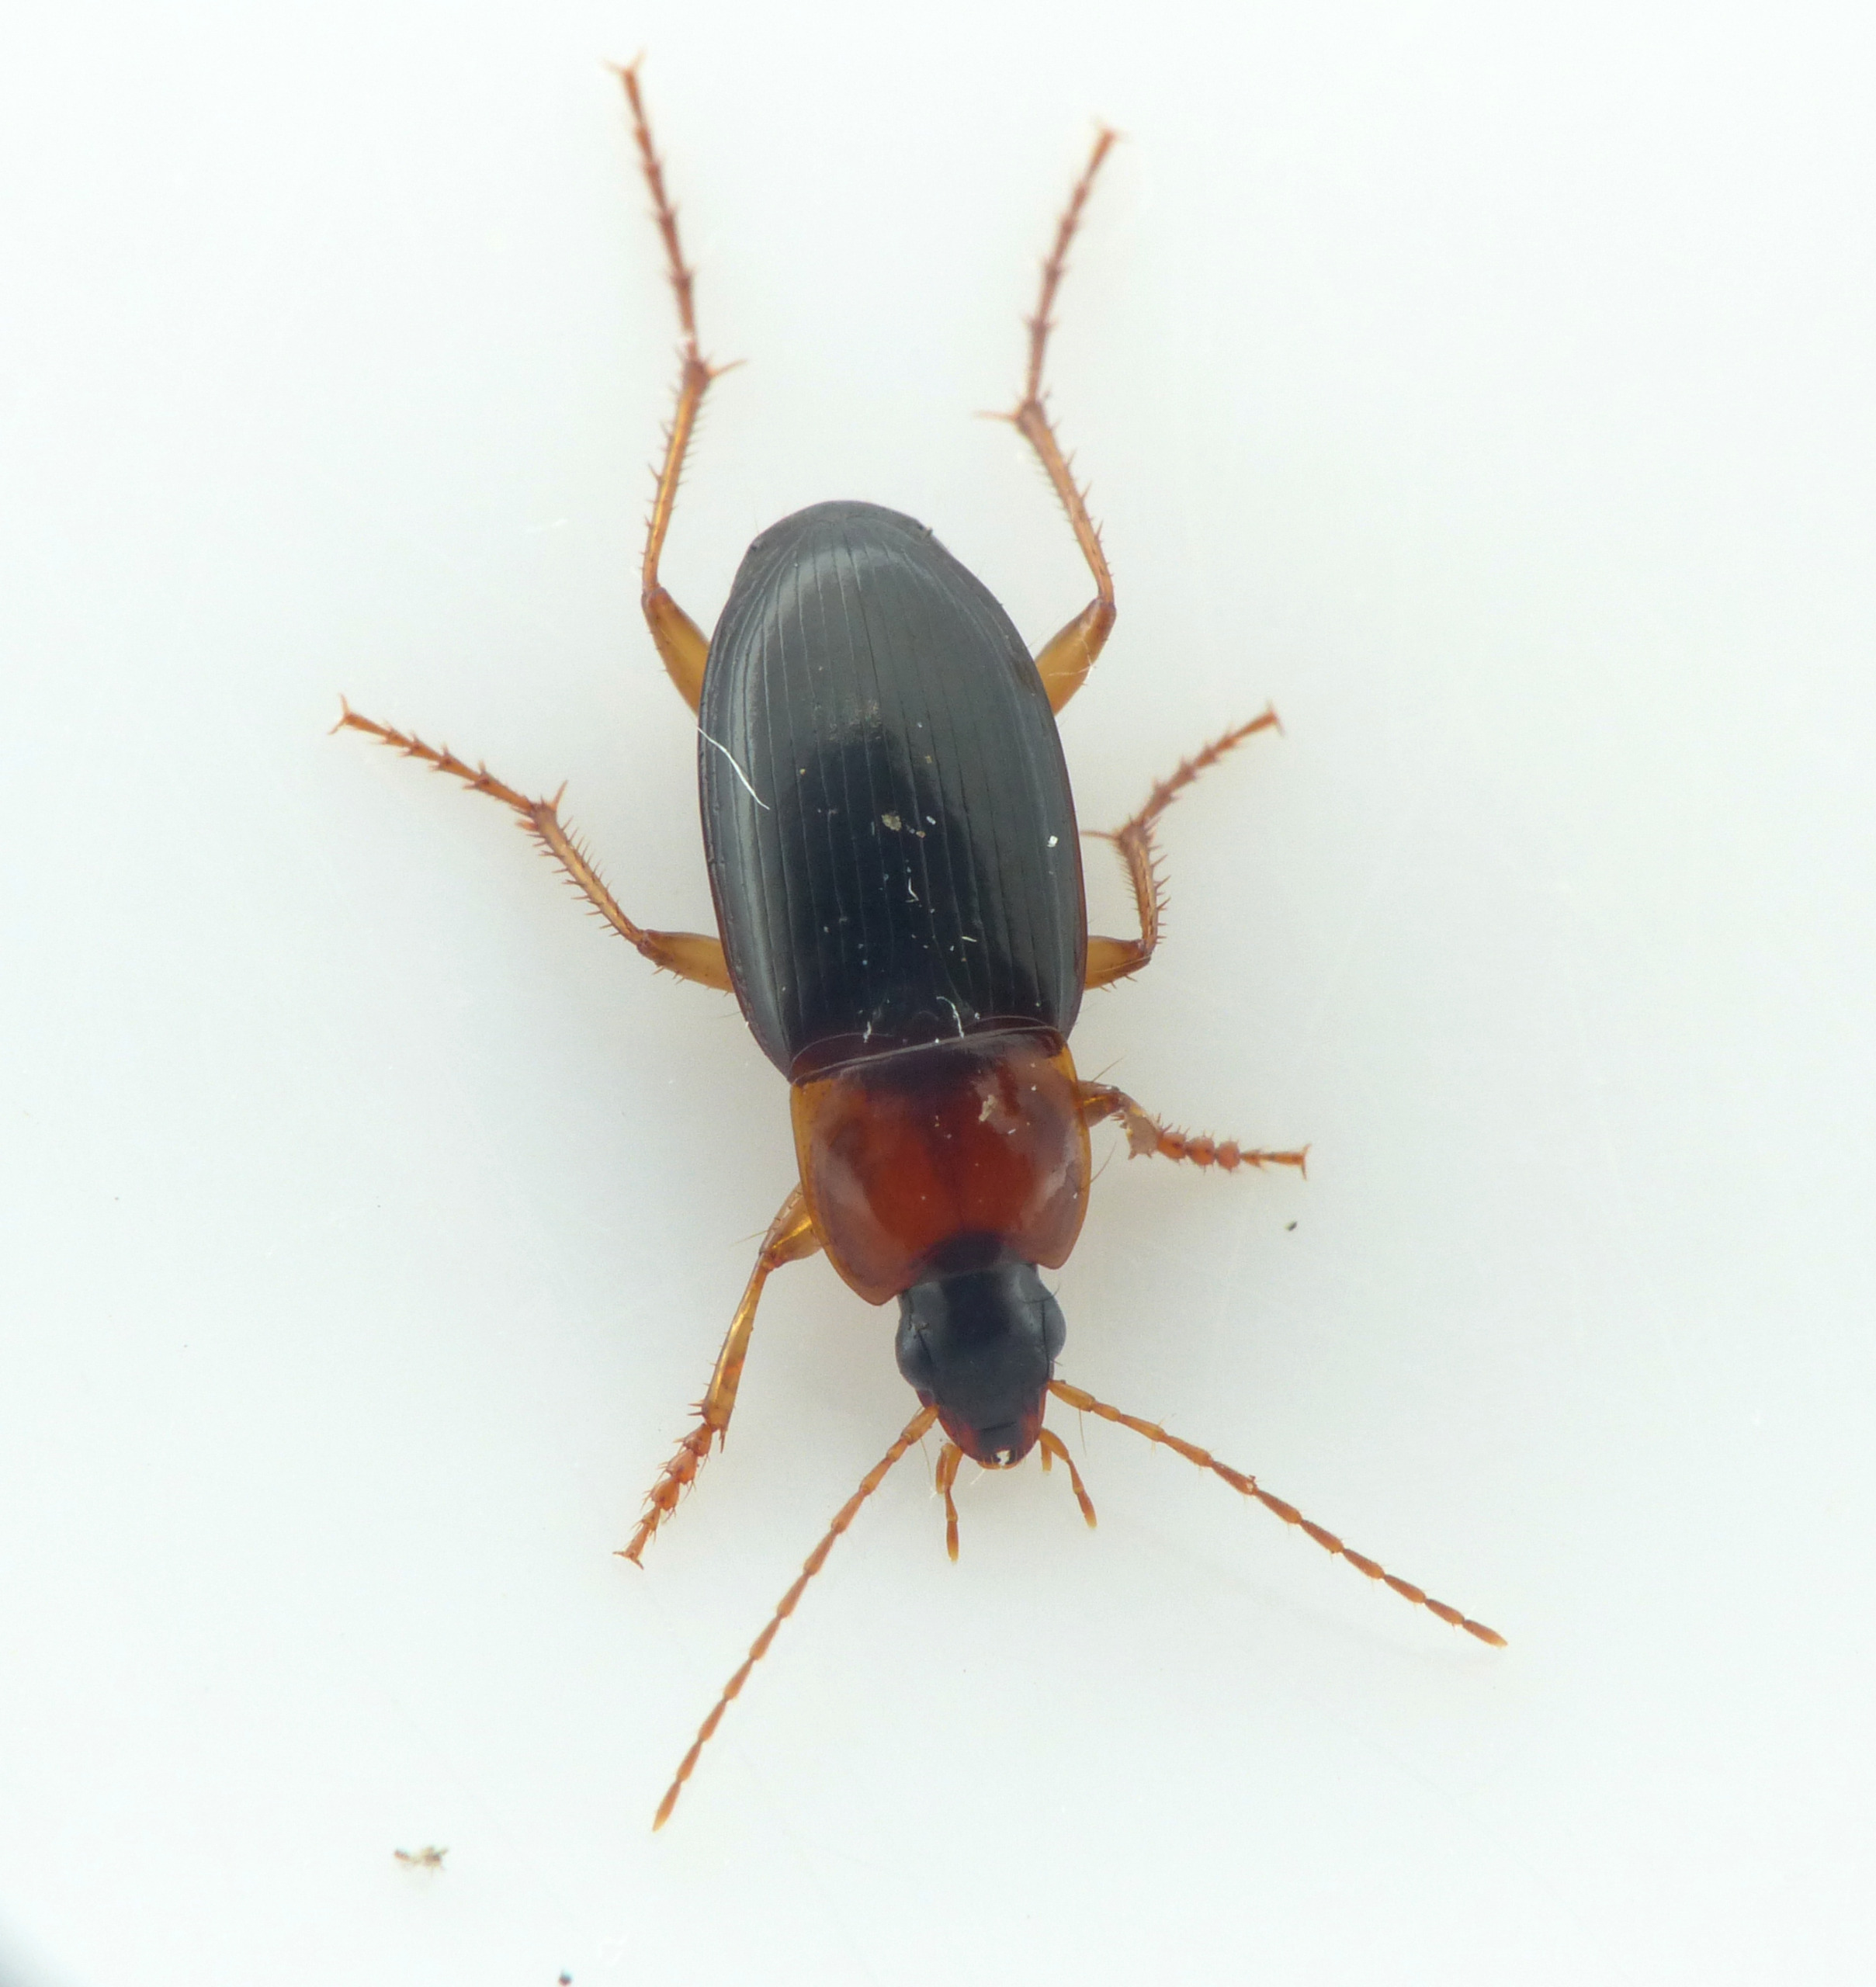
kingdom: Animalia
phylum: Arthropoda
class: Insecta
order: Coleoptera
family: Carabidae
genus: Calathus
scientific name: Calathus melanocephalus
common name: Rødbrystet torpedoløber
